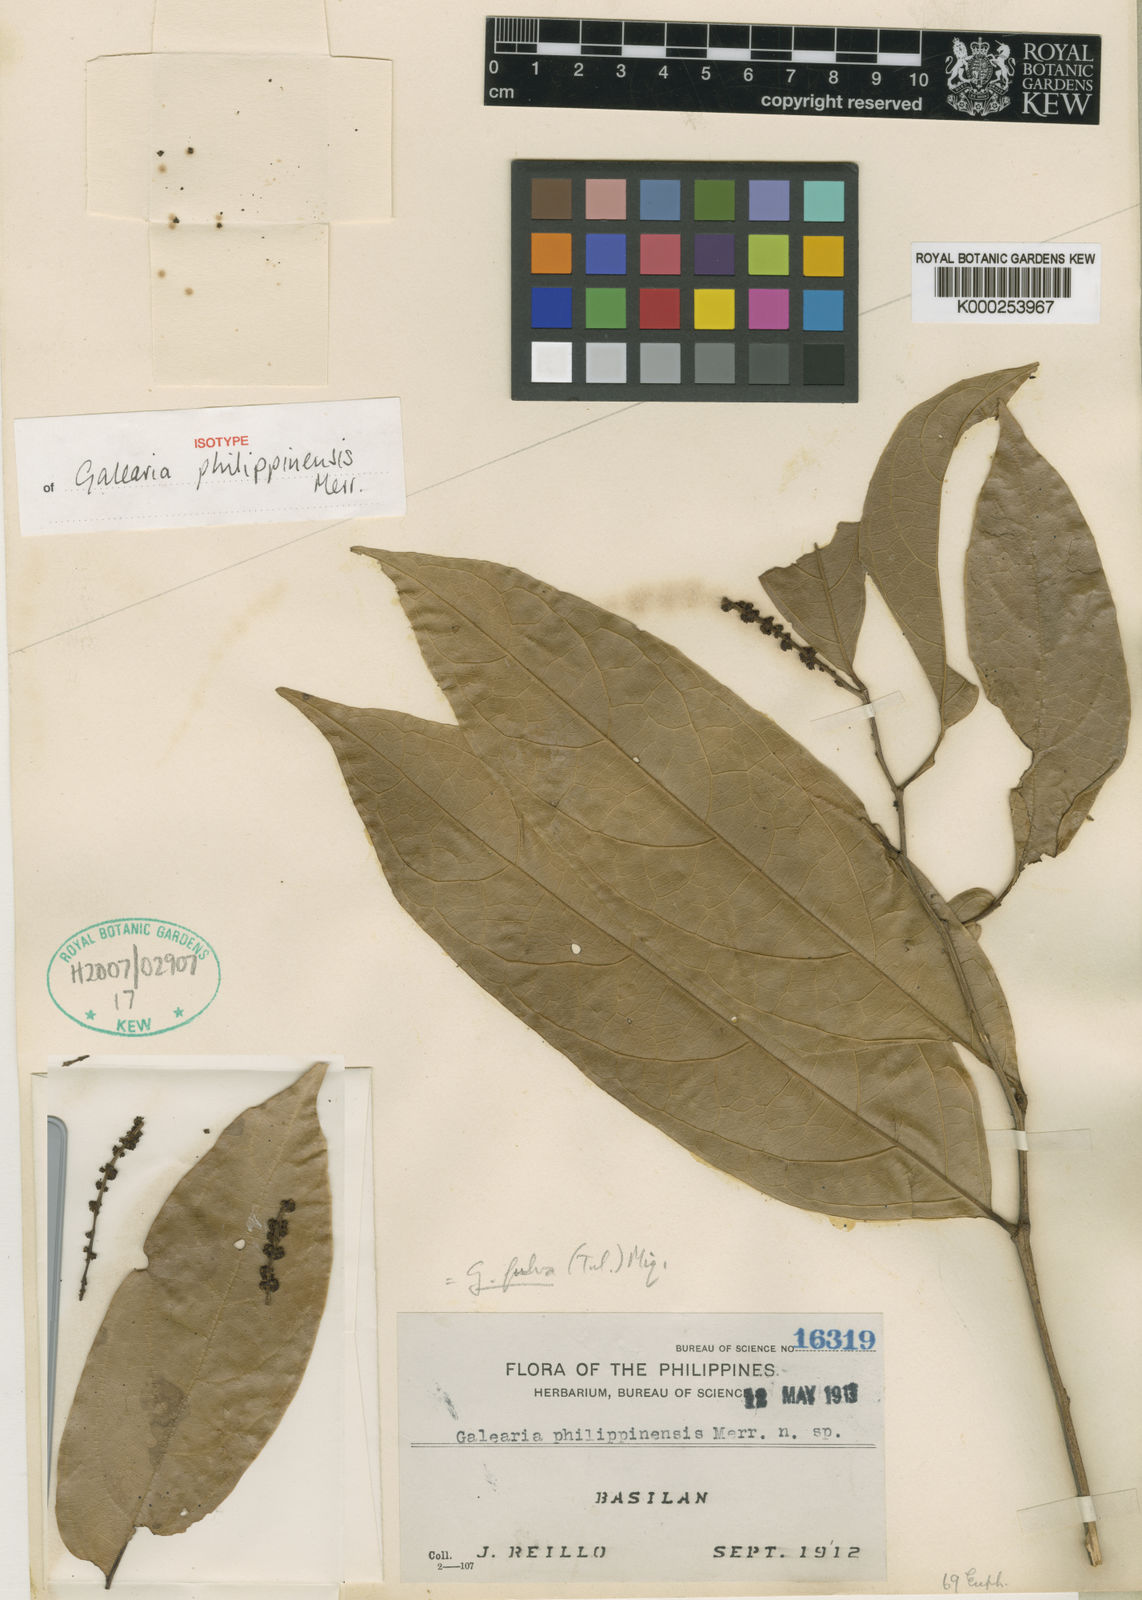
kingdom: Plantae
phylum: Tracheophyta
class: Magnoliopsida
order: Malpighiales
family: Pandaceae
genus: Galearia
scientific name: Galearia fulva
